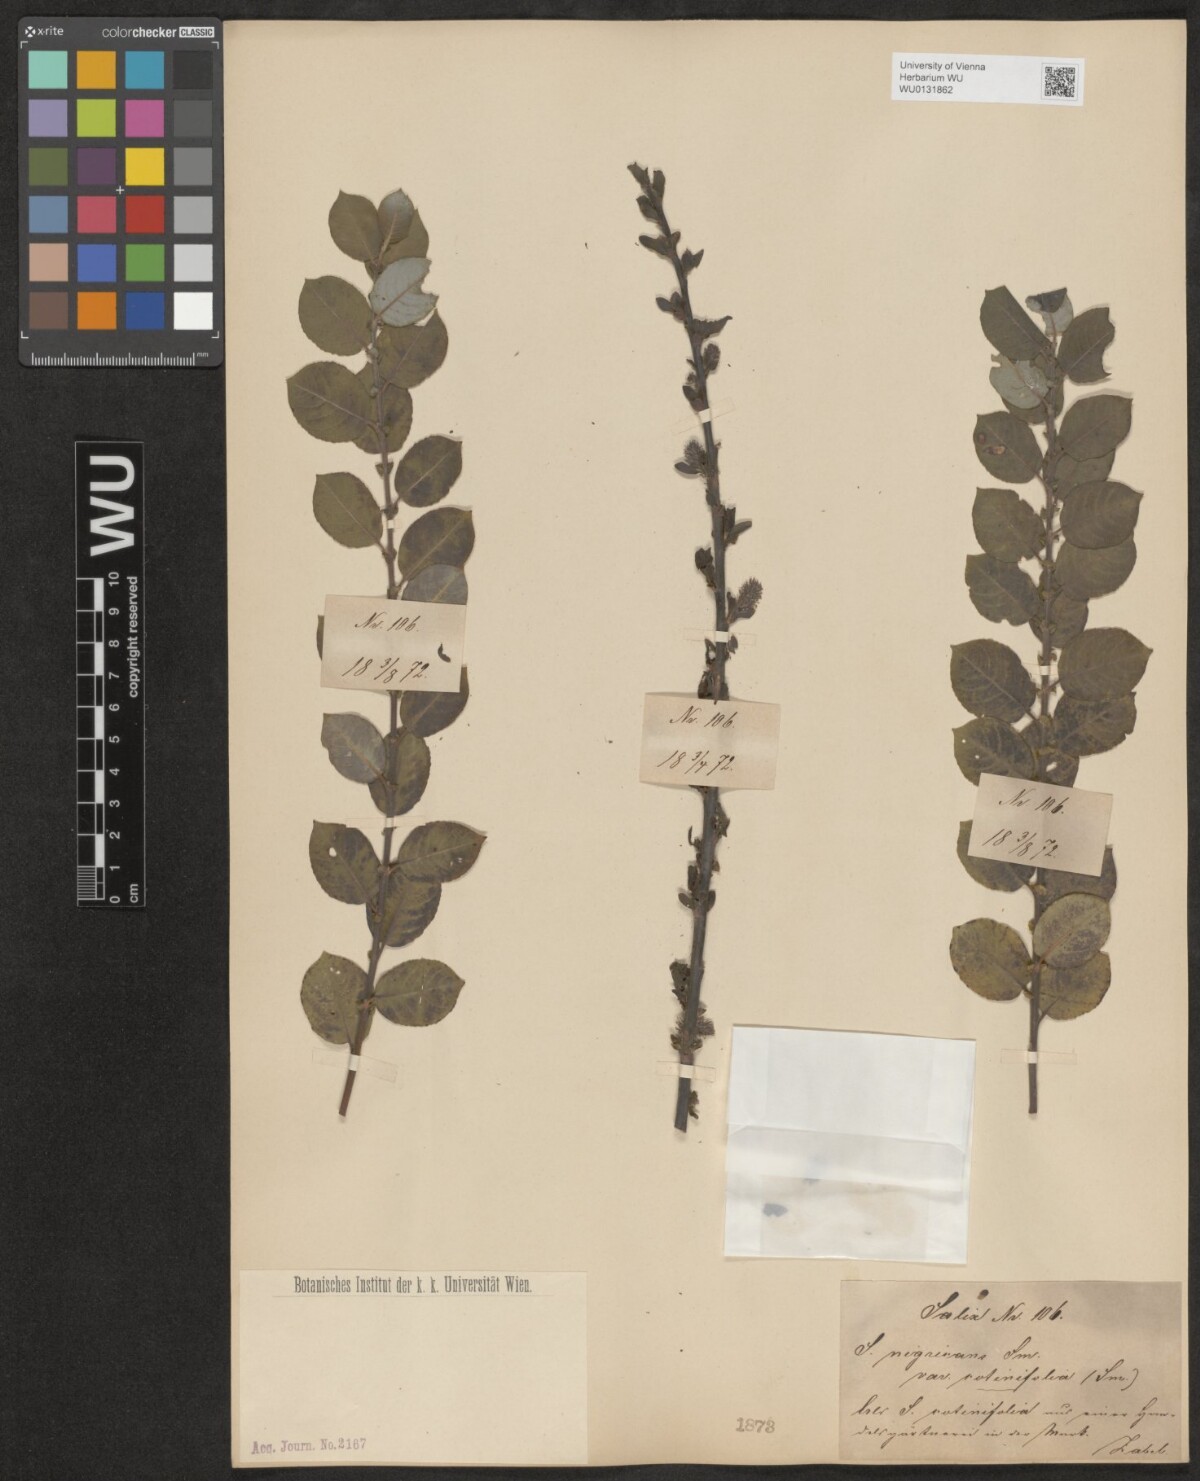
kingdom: Plantae
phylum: Tracheophyta
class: Magnoliopsida
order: Malpighiales
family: Salicaceae
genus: Salix
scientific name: Salix myrsinifolia
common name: Dark-leaved willow
